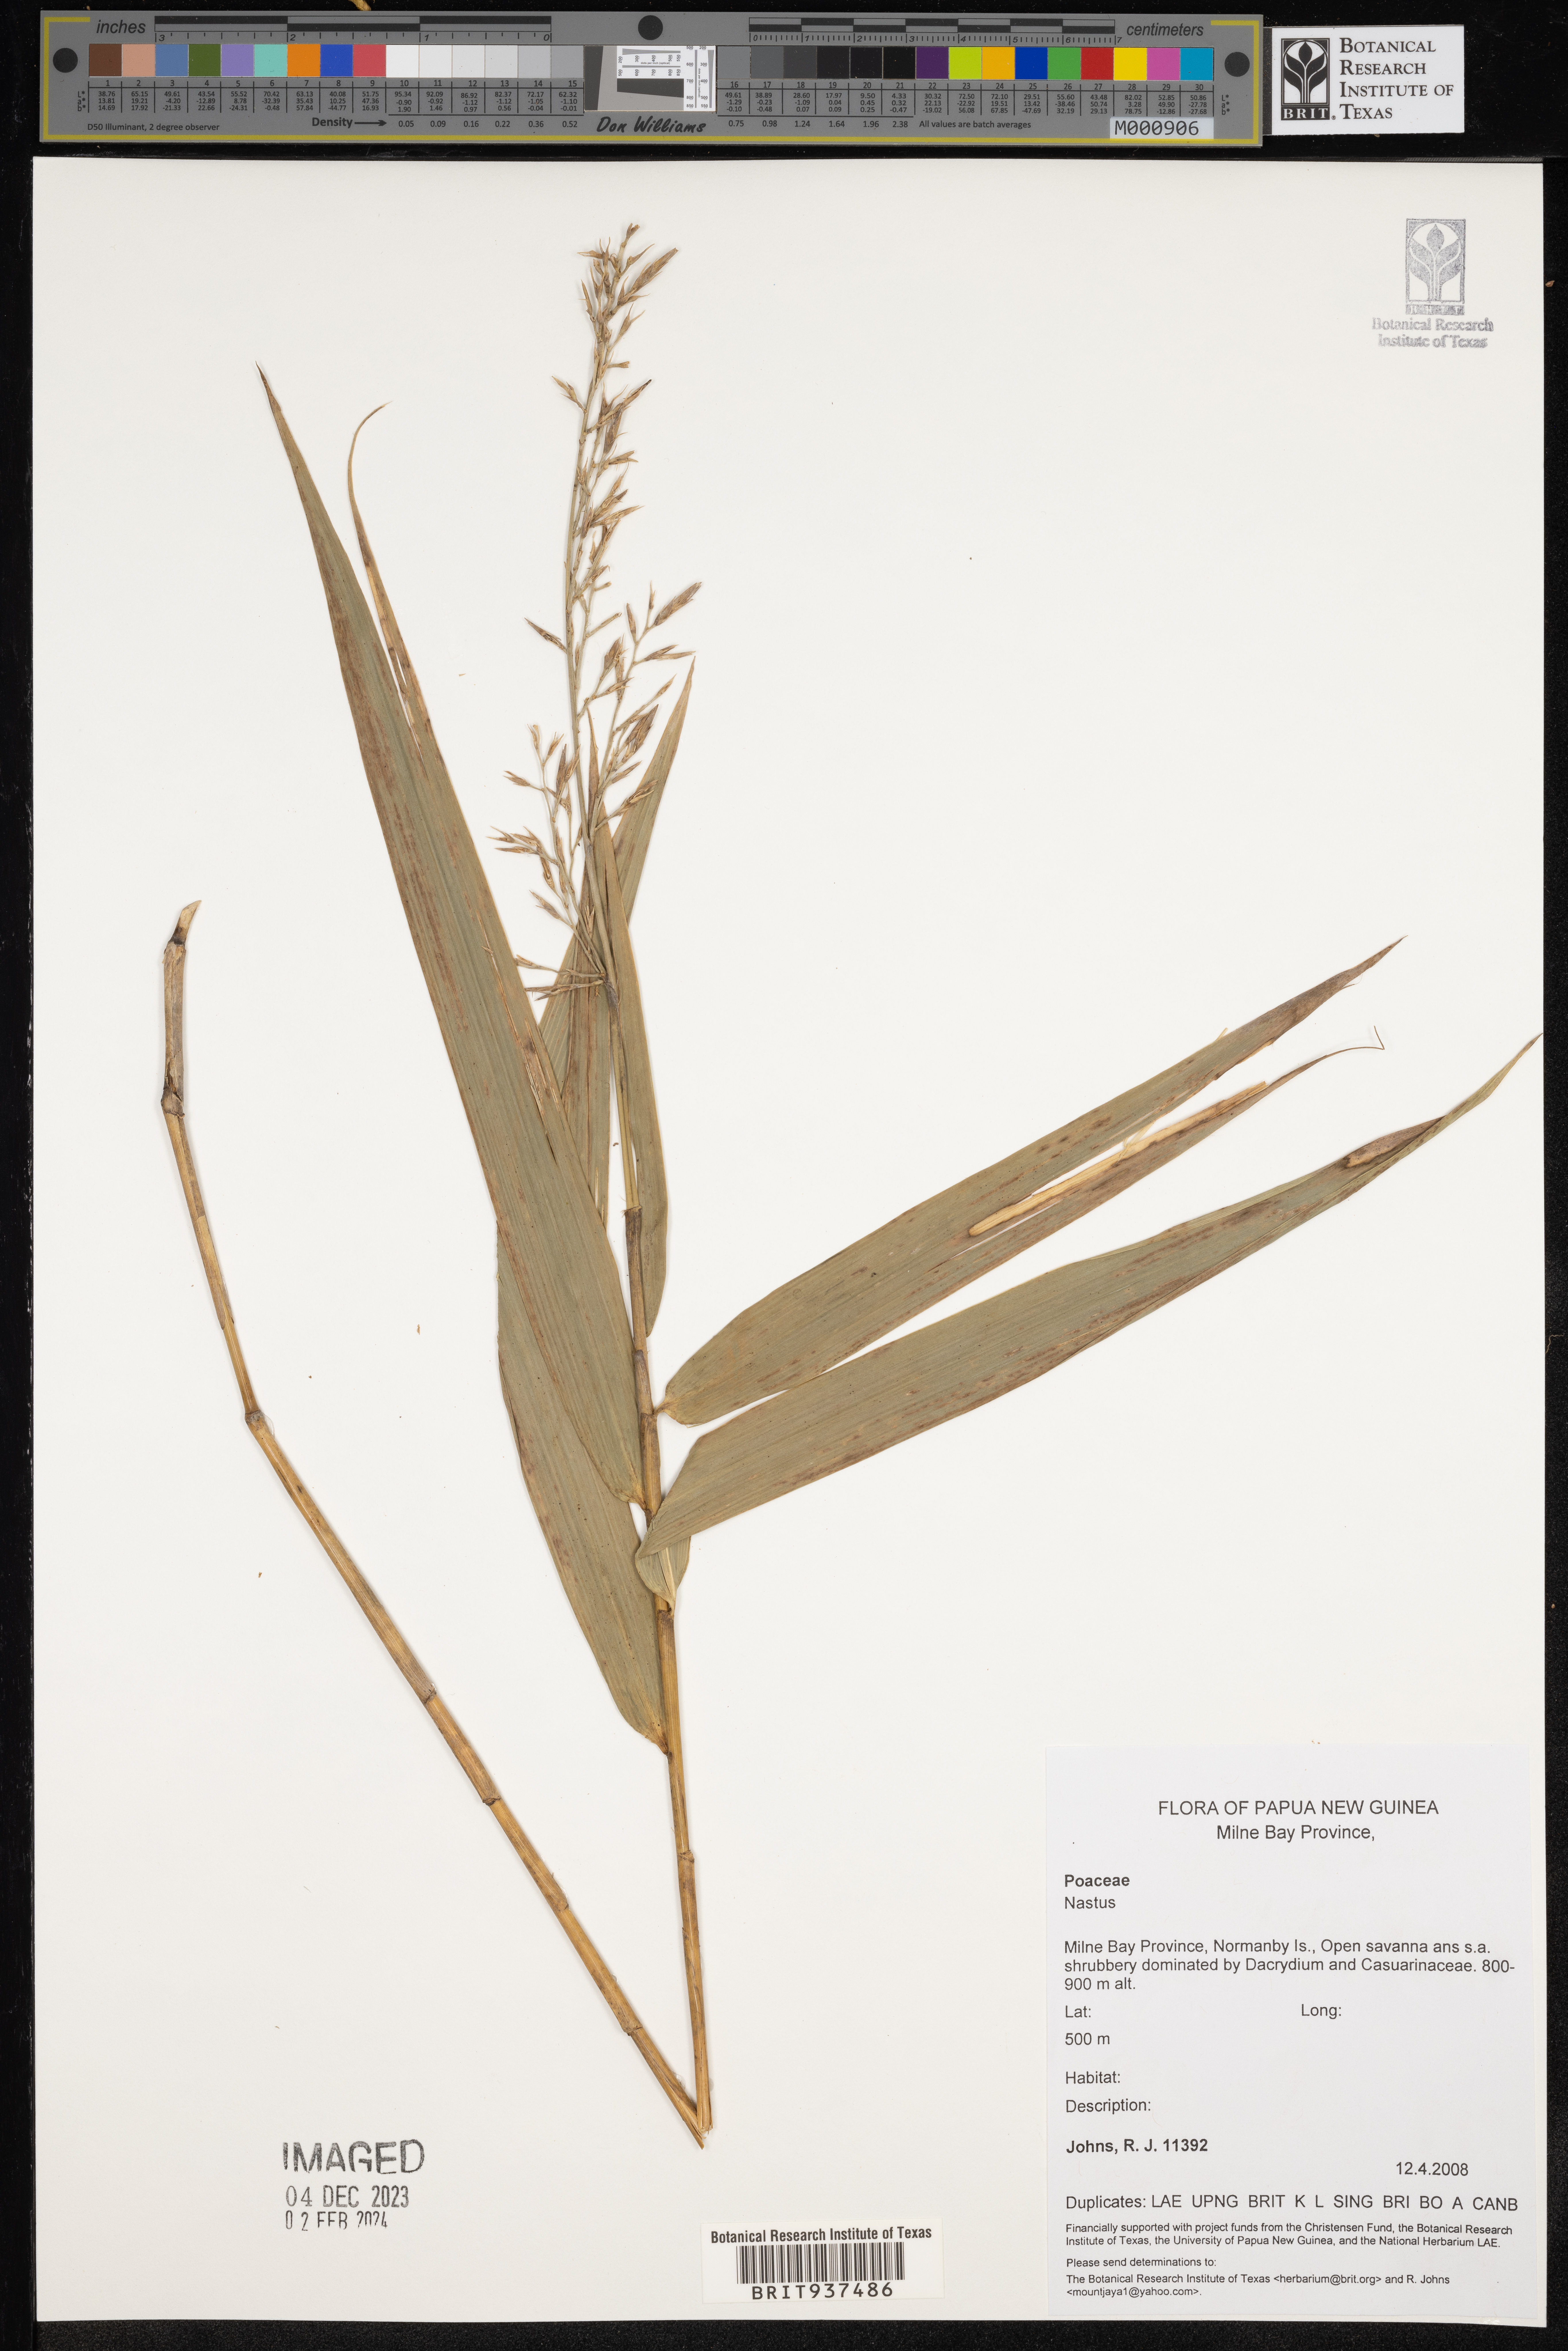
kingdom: Plantae
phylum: Tracheophyta
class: Liliopsida
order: Poales
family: Poaceae
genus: Nastus
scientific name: Nastus
